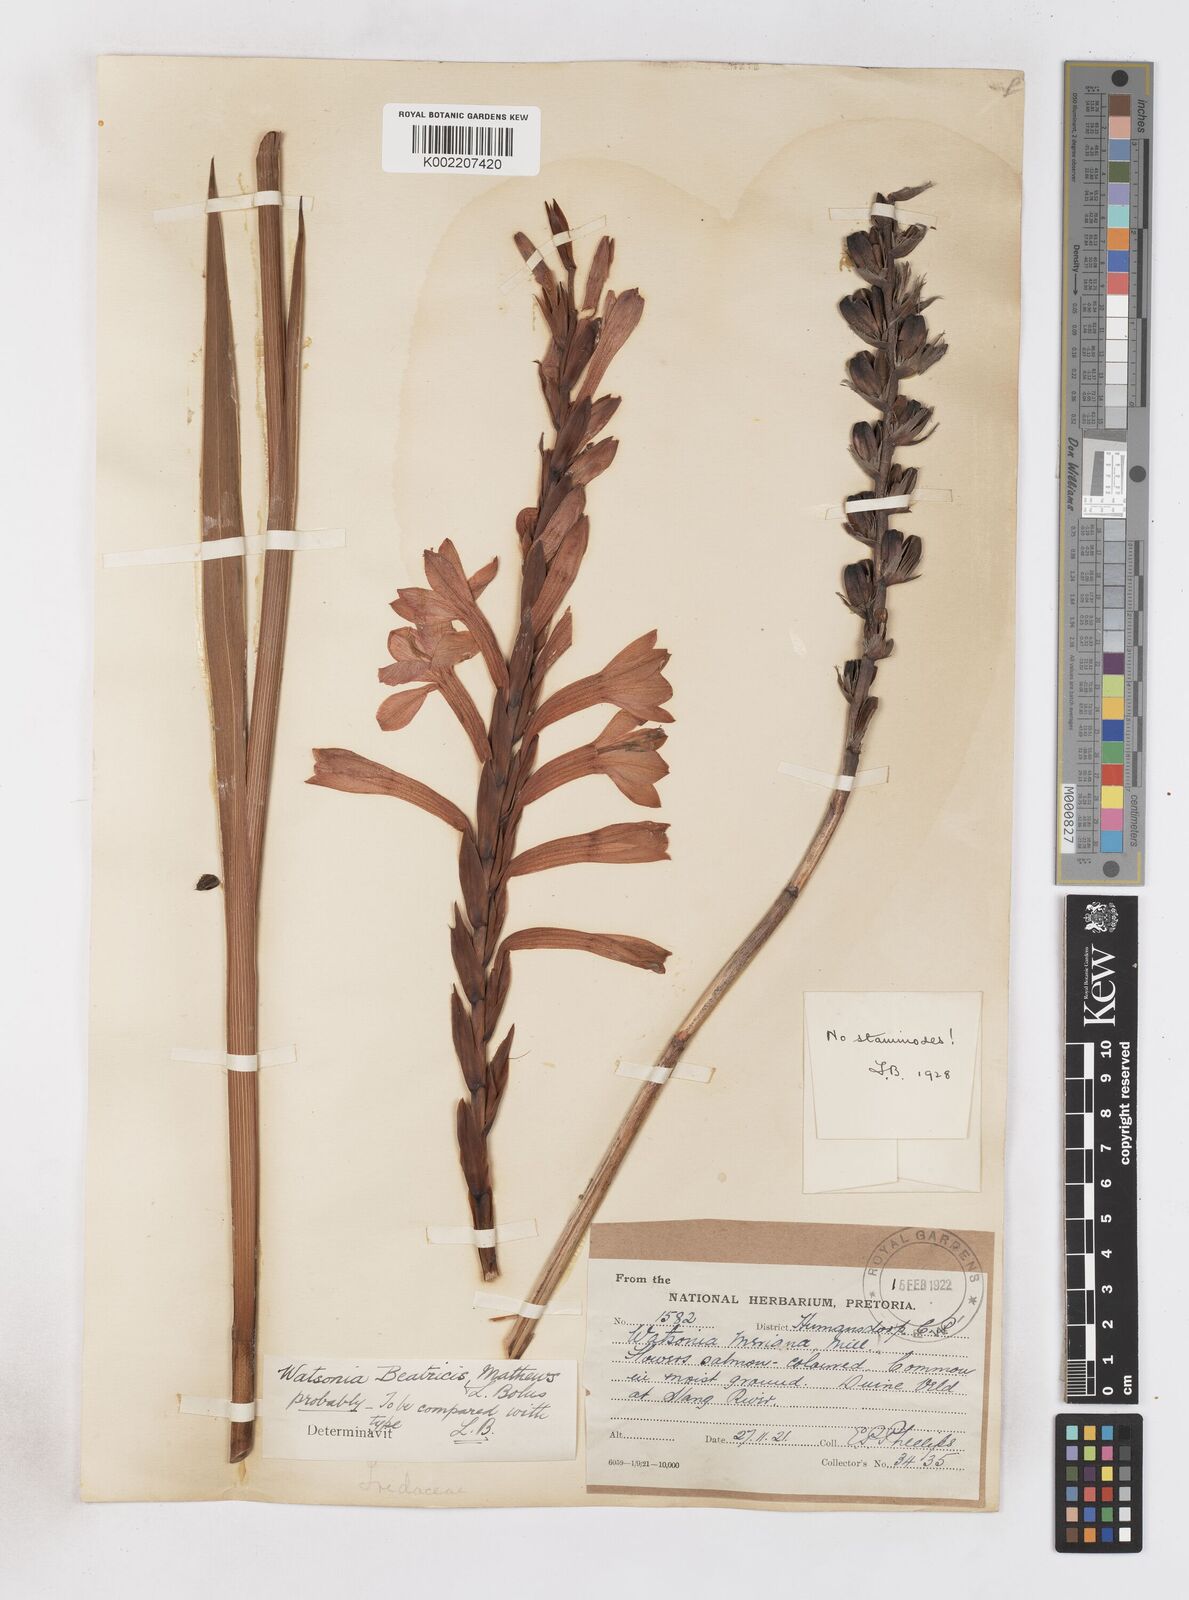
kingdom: Plantae
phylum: Tracheophyta
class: Liliopsida
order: Asparagales
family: Iridaceae
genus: Watsonia
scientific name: Watsonia pillansii
